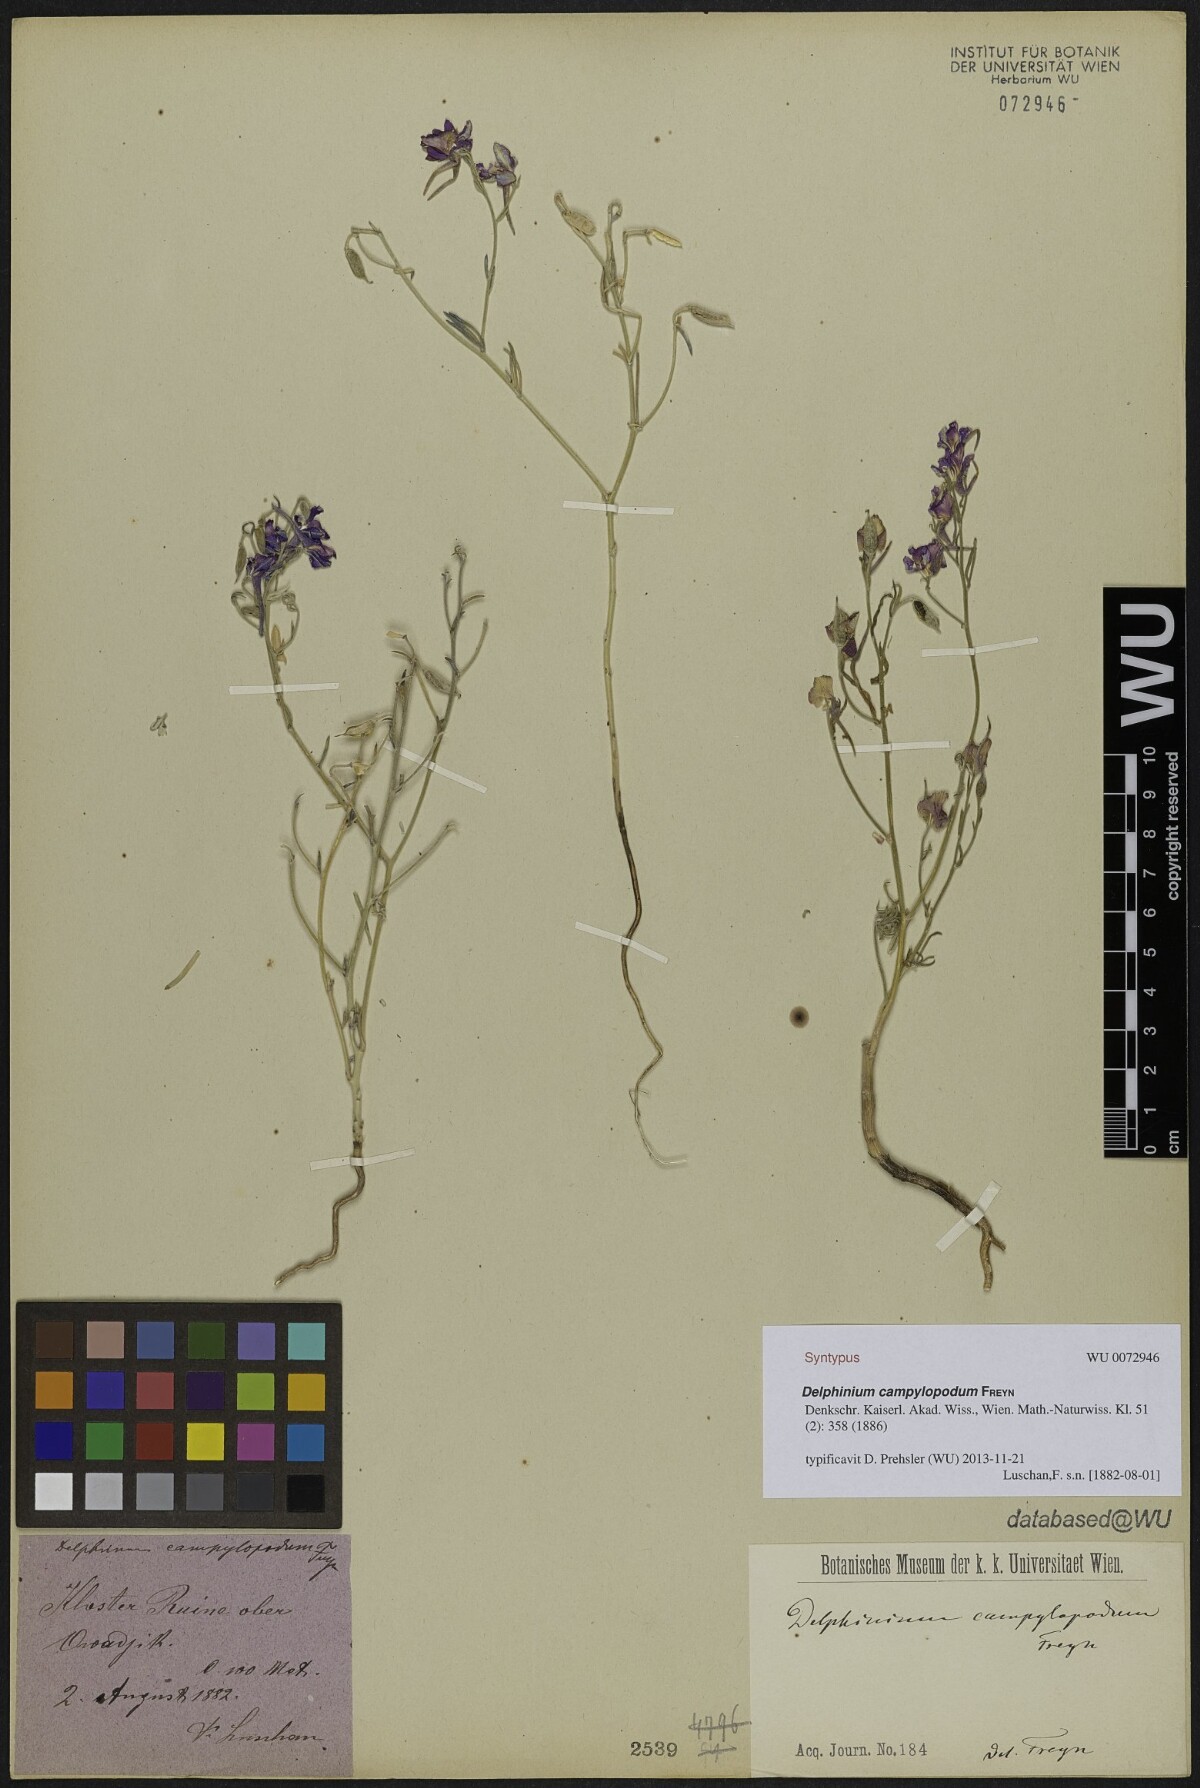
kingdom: Plantae
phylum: Tracheophyta
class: Magnoliopsida
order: Ranunculales
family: Ranunculaceae
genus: Delphinium
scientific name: Delphinium hellesponticum
